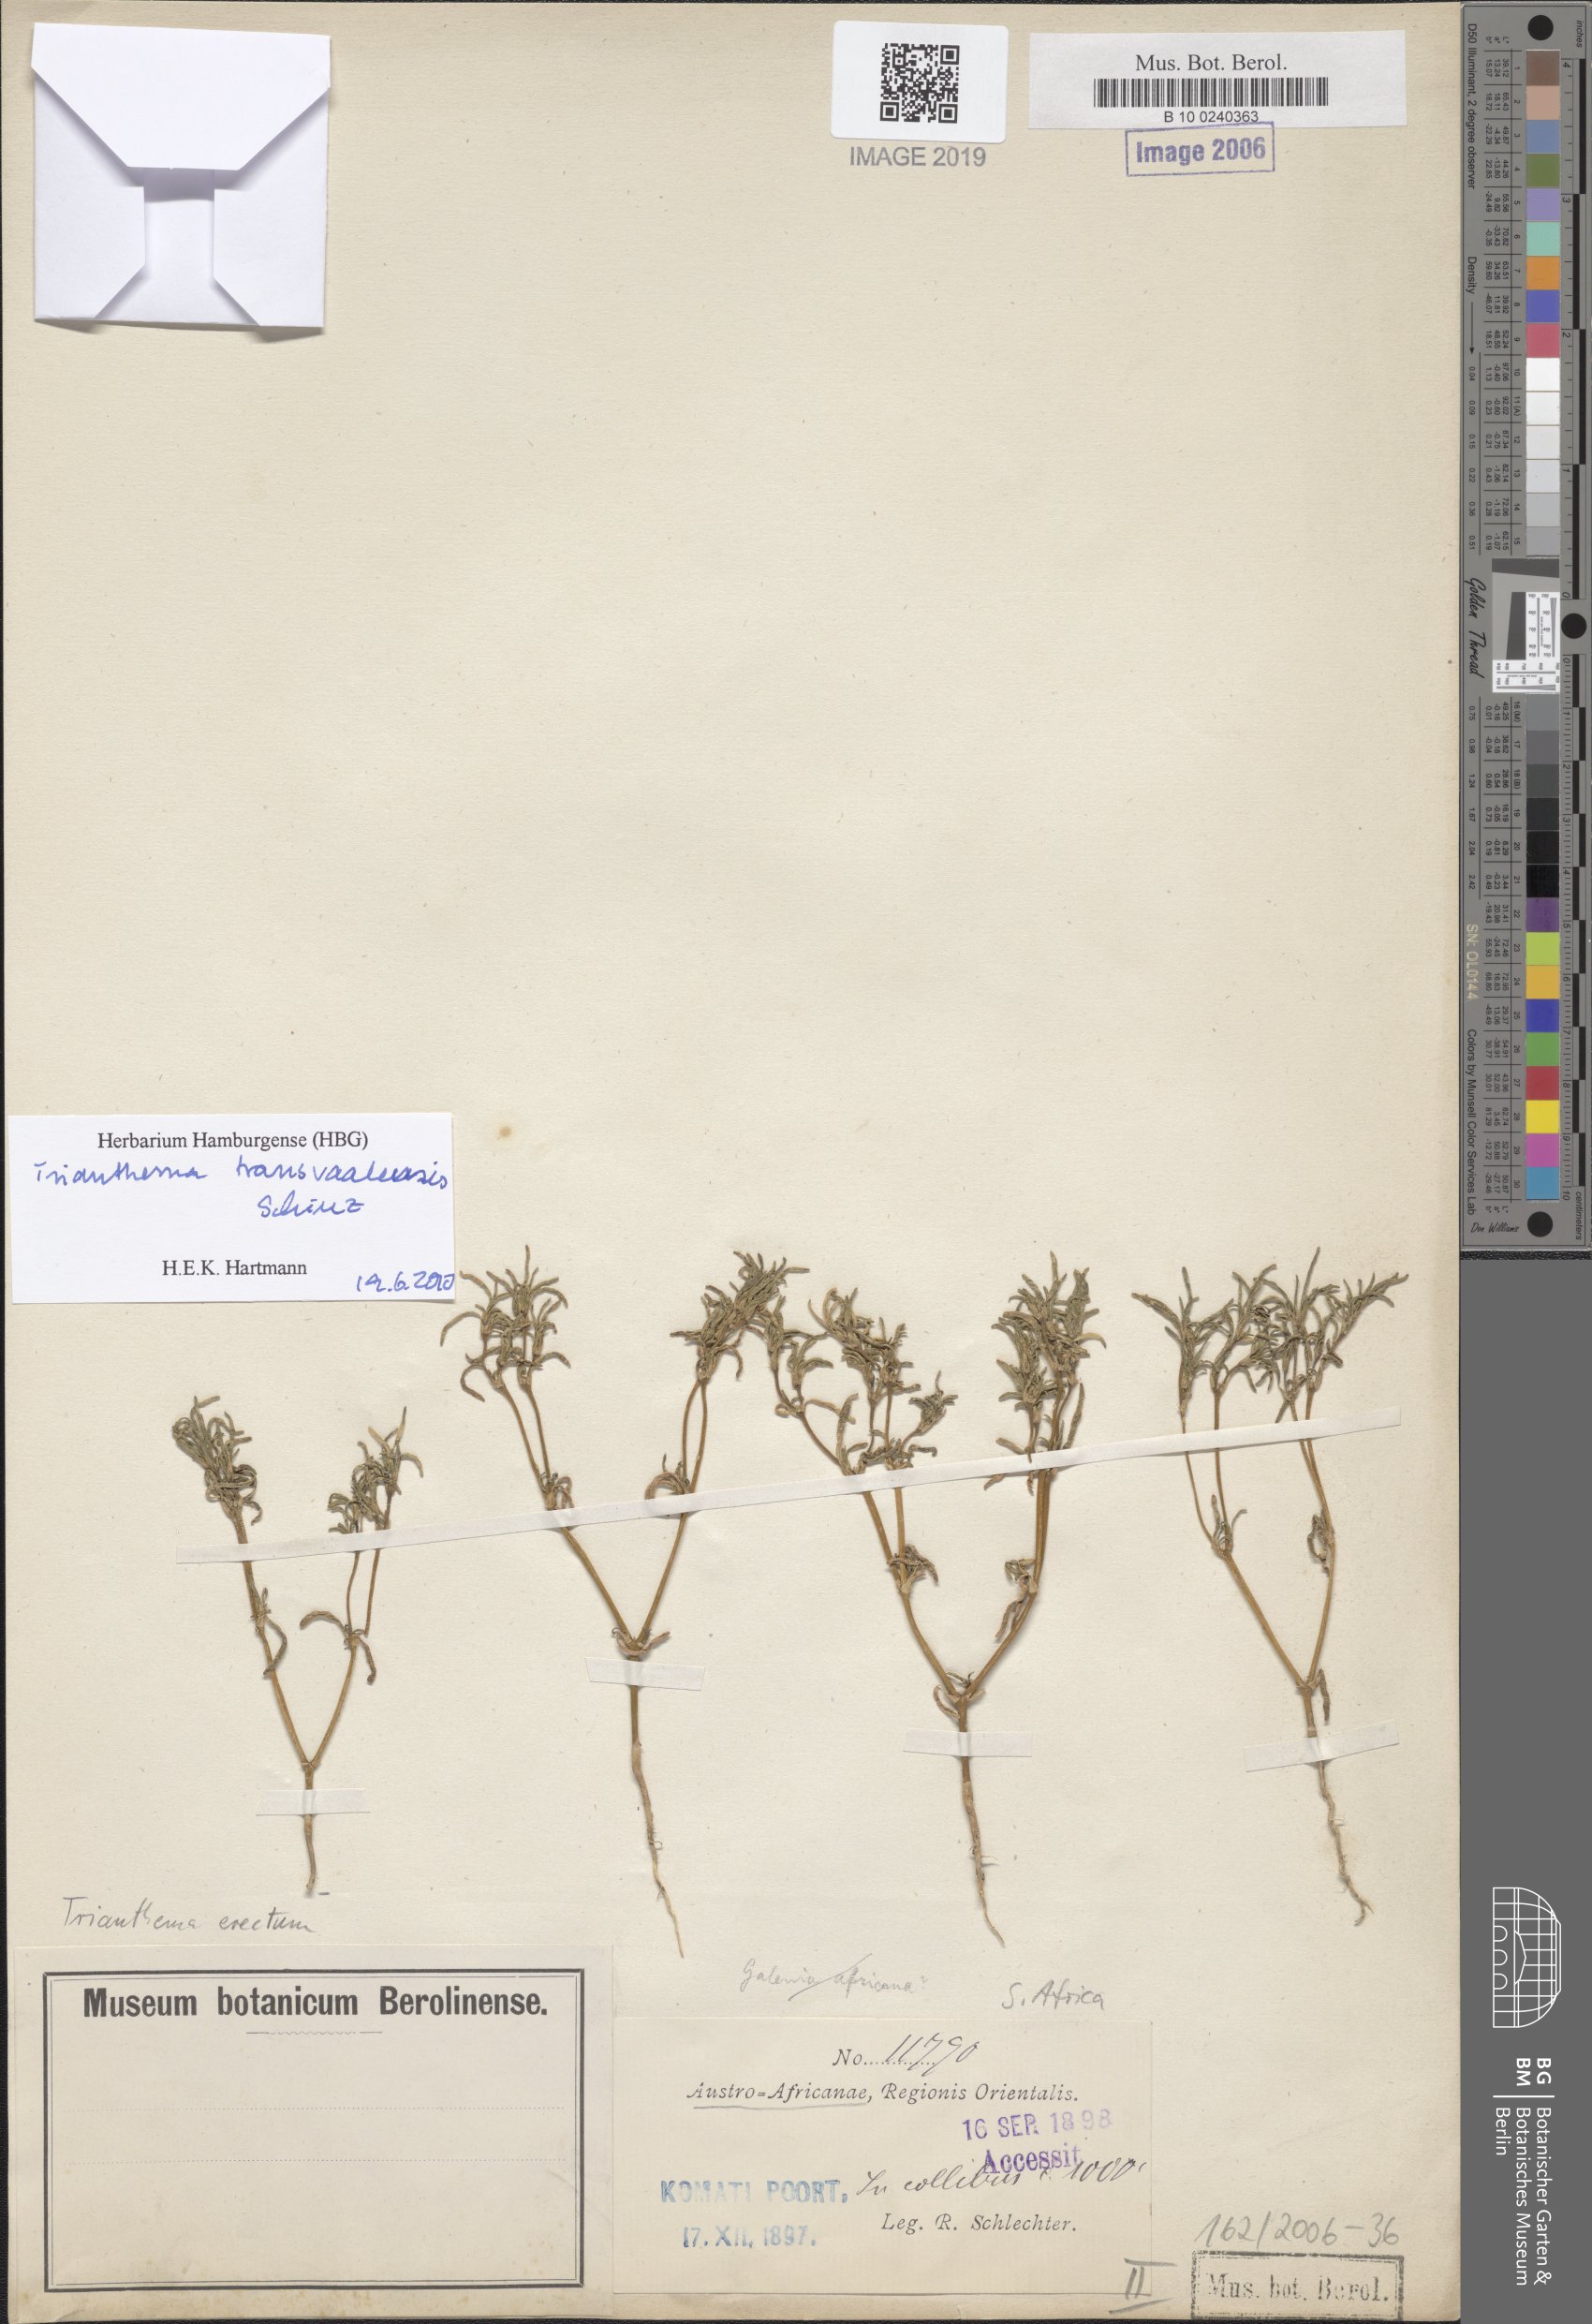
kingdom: Plantae
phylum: Tracheophyta
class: Magnoliopsida
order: Caryophyllales
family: Aizoaceae
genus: Trianthema
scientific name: Trianthema
